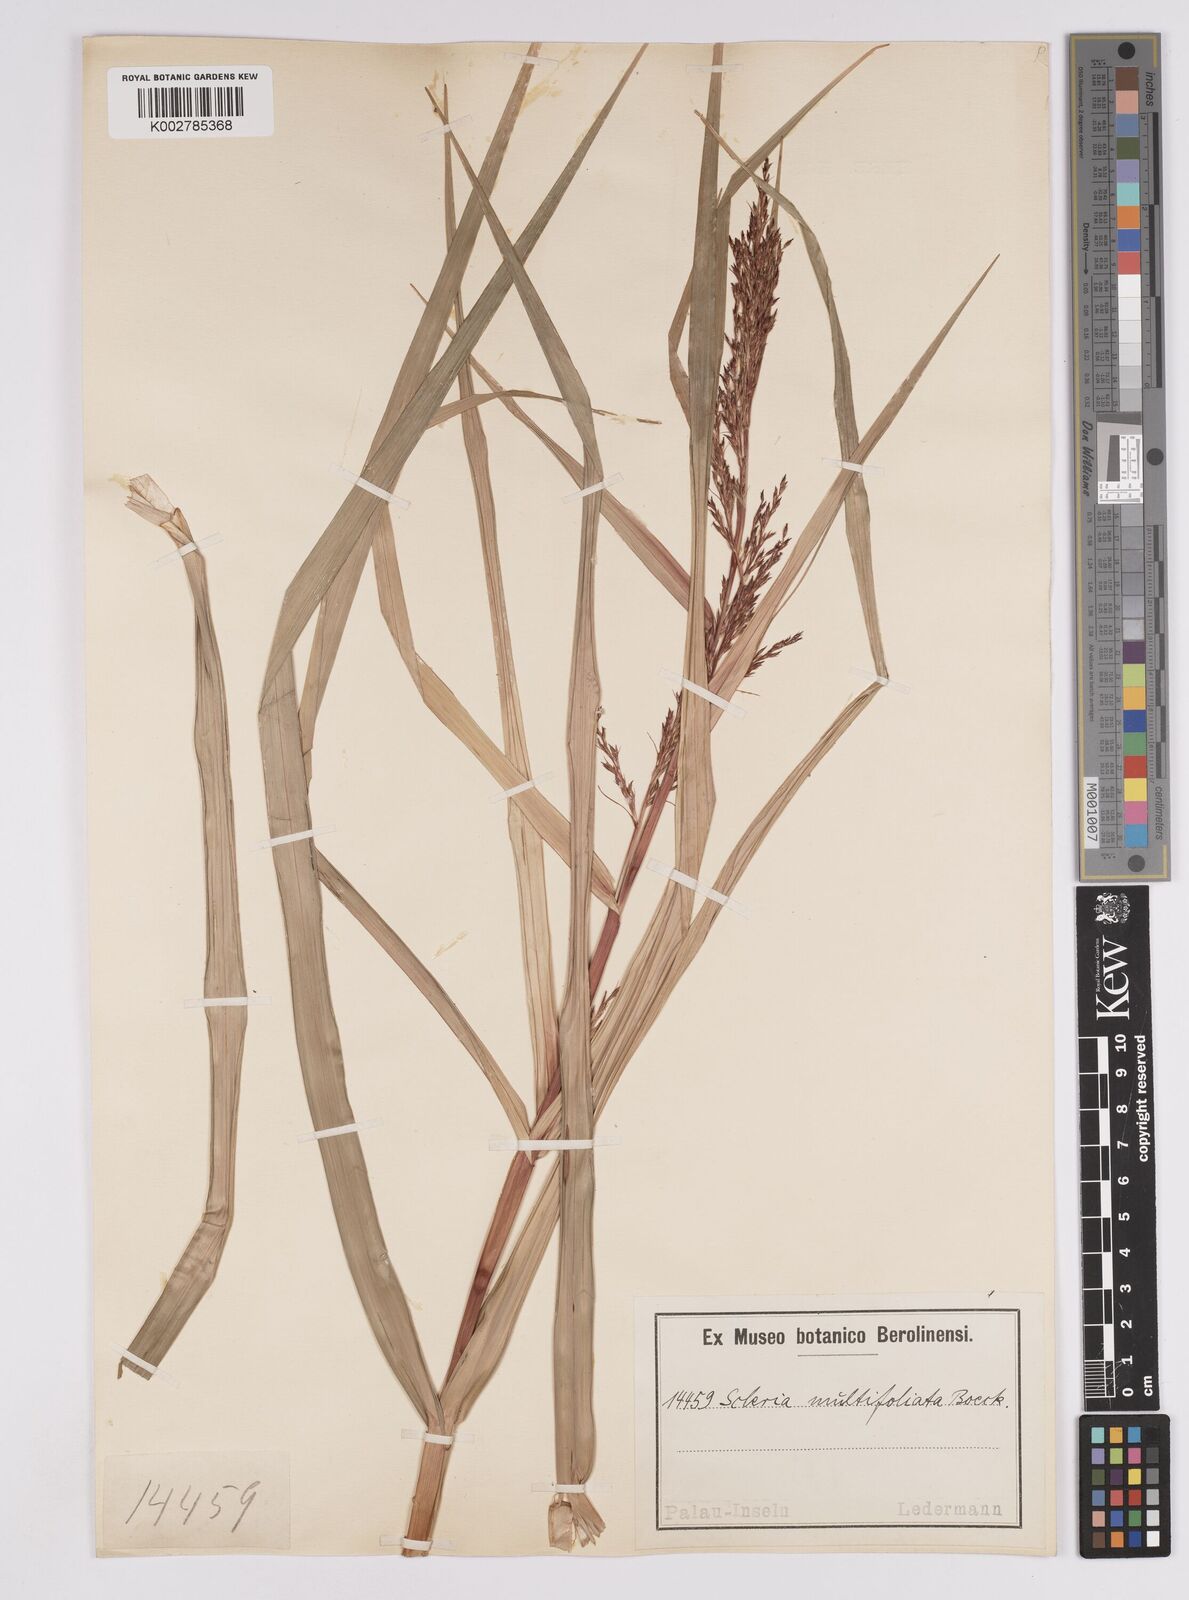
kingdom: Plantae
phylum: Tracheophyta
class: Liliopsida
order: Poales
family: Cyperaceae
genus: Scleria
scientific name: Scleria purpurascens
